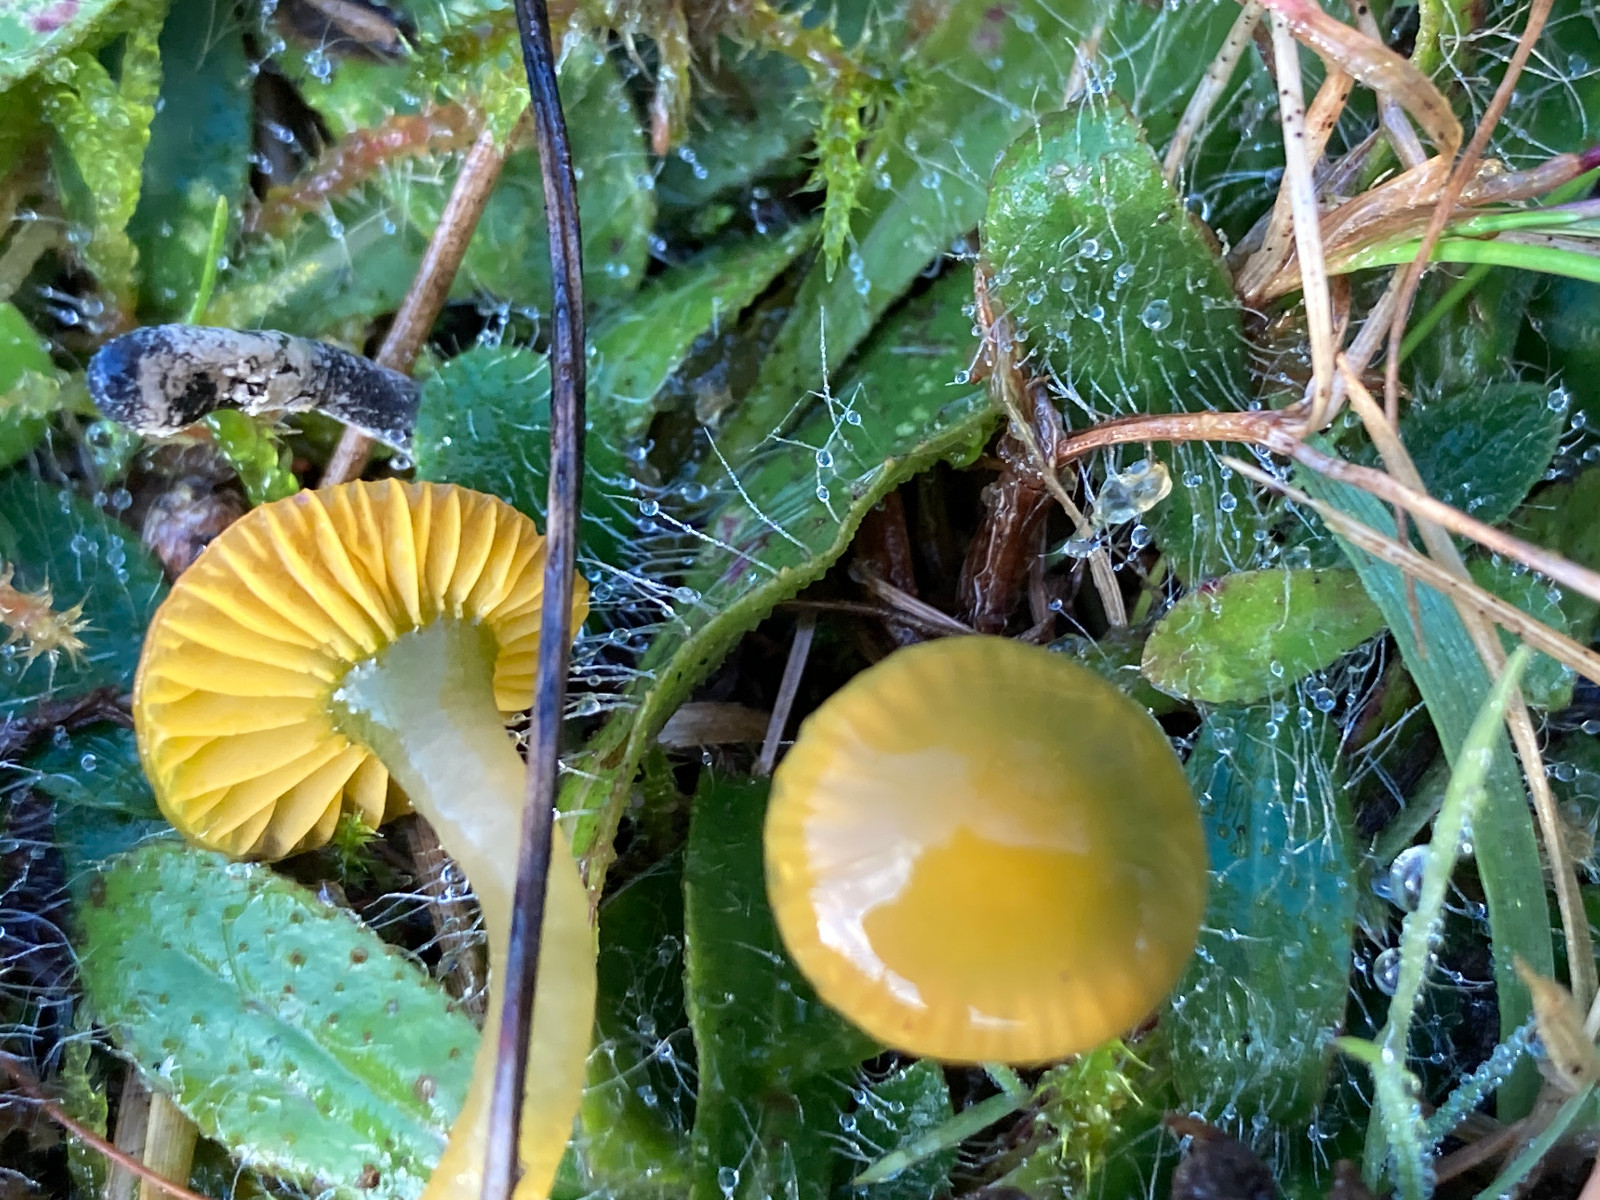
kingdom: Fungi
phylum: Basidiomycota
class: Agaricomycetes
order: Agaricales
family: Hygrophoraceae
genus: Gliophorus
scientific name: Gliophorus psittacinus
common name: papegøje-vokshat
